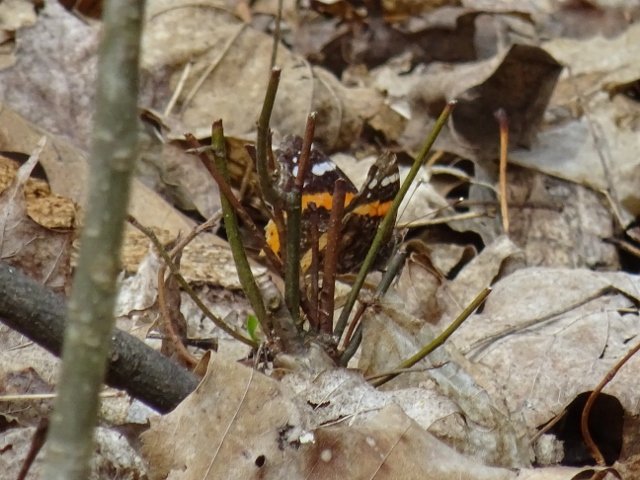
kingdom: Animalia
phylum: Arthropoda
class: Insecta
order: Lepidoptera
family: Nymphalidae
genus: Vanessa
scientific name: Vanessa atalanta
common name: Red Admiral
